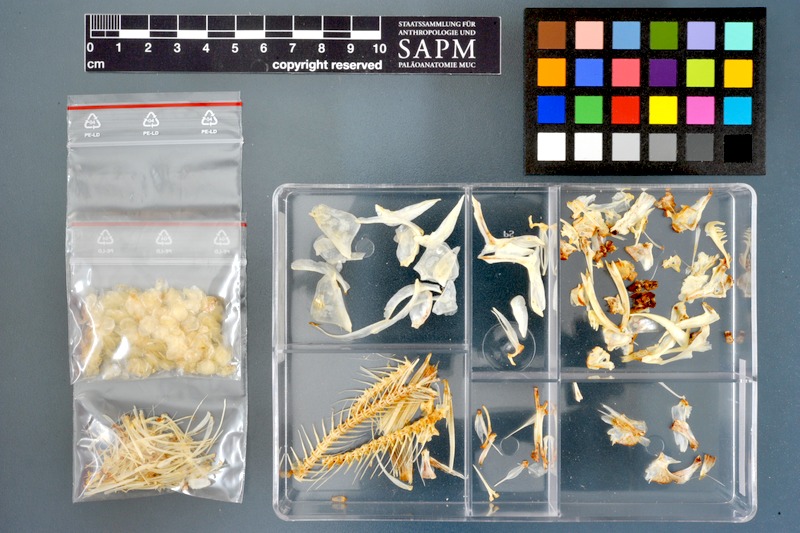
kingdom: Animalia
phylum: Chordata
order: Cypriniformes
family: Cyprinidae
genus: Raiamas
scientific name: Raiamas senegalensis
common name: Senegal minnow
